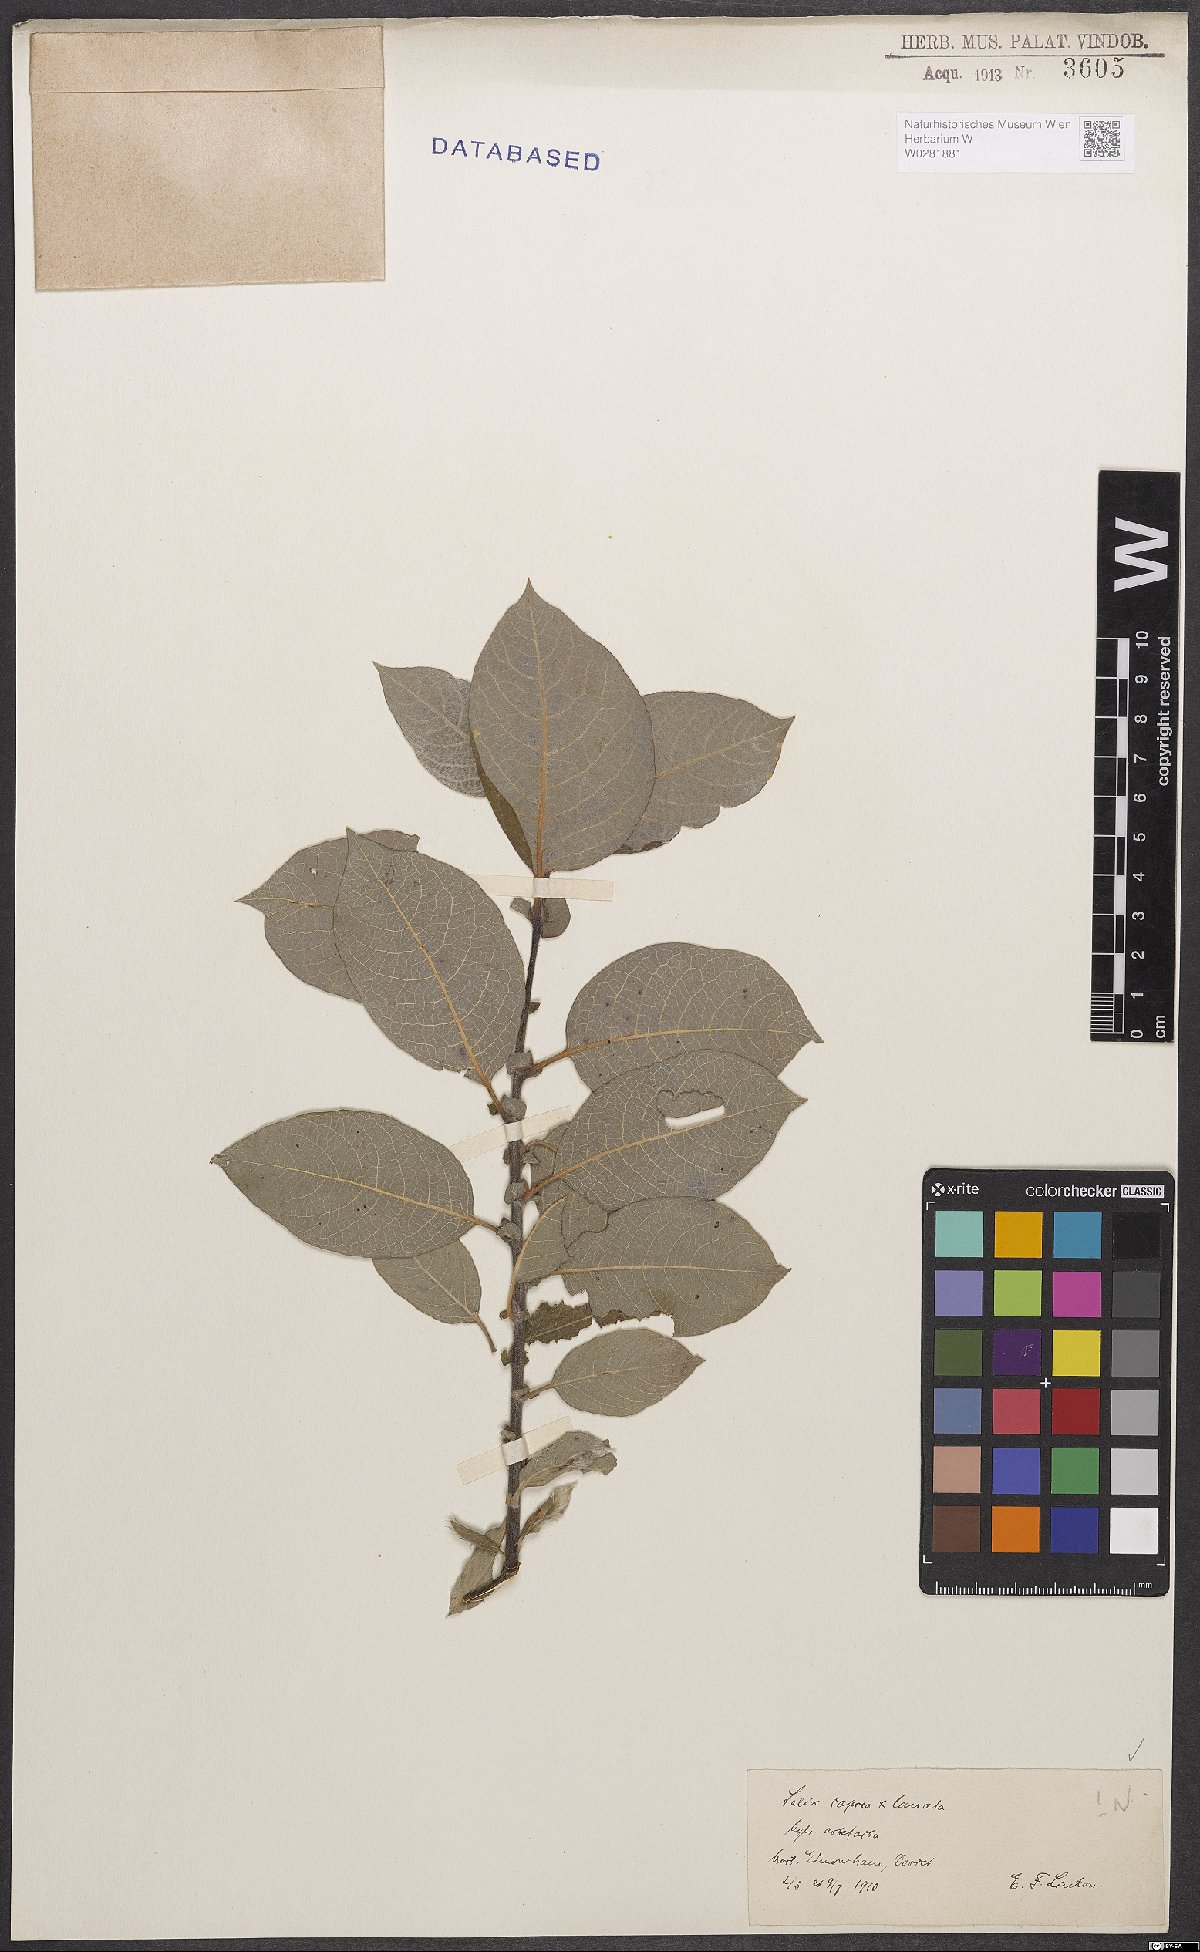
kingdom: Plantae
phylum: Tracheophyta
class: Magnoliopsida
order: Malpighiales
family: Salicaceae
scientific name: Salicaceae
